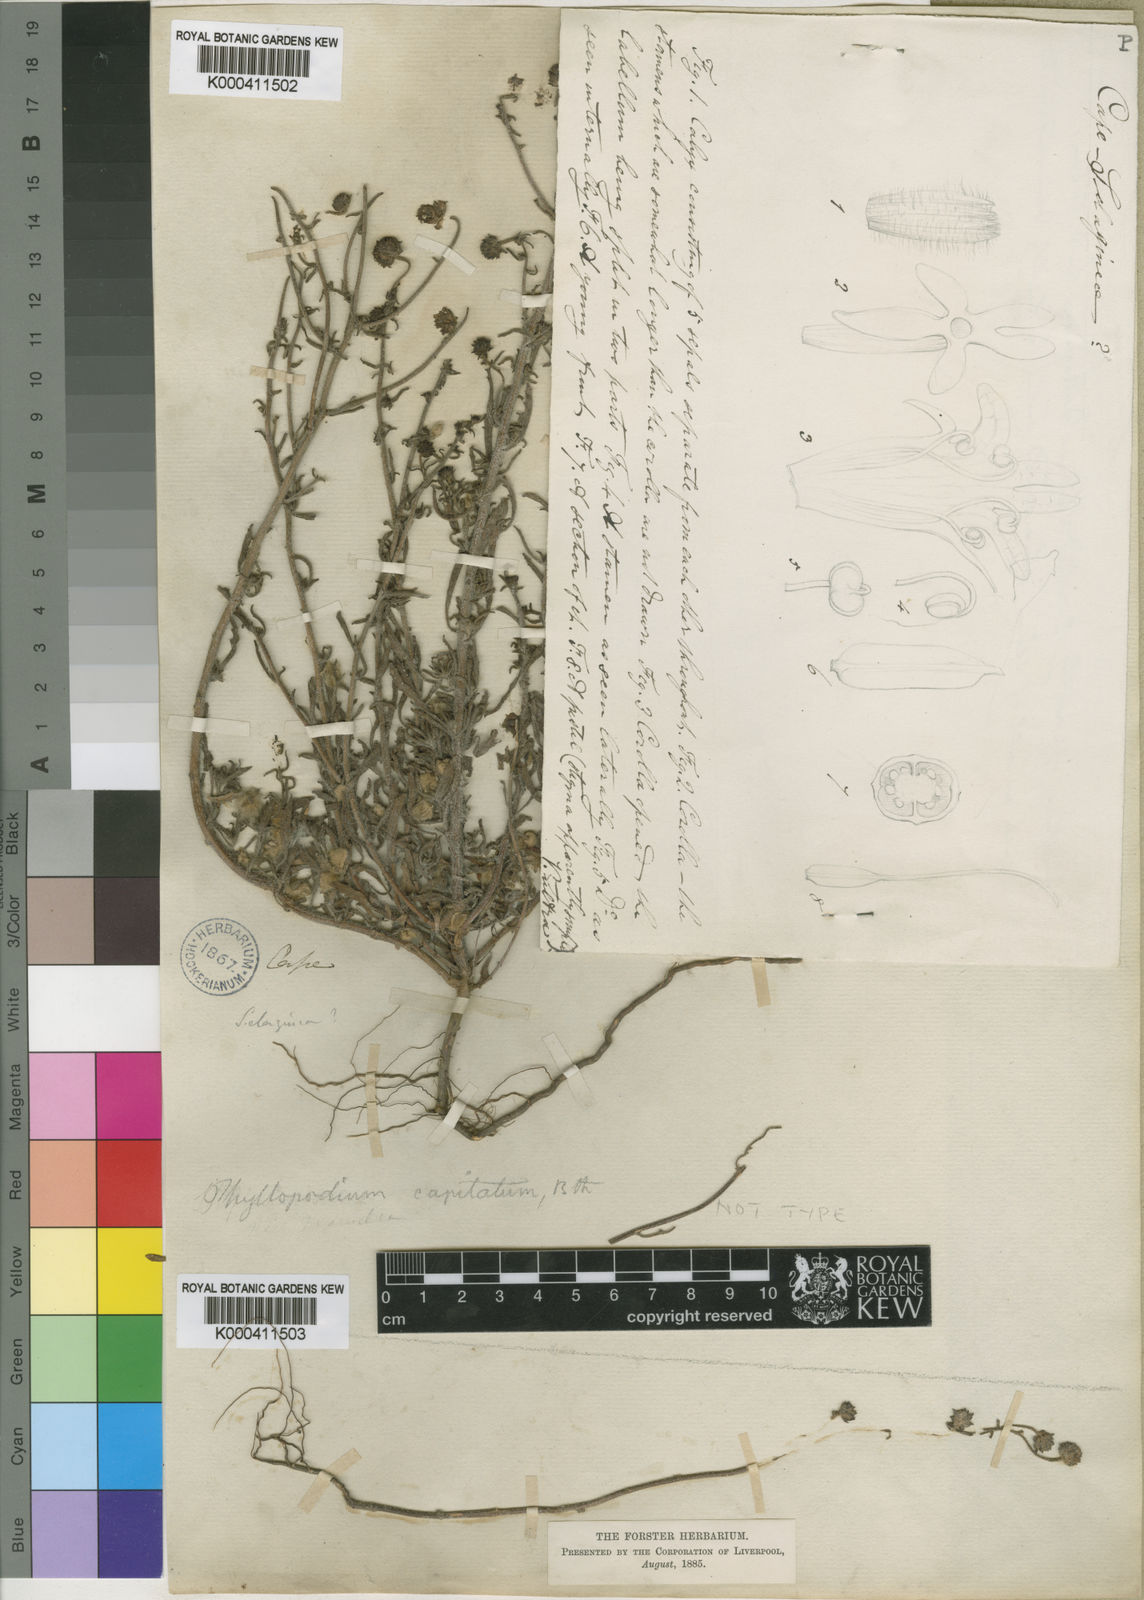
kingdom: Plantae
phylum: Tracheophyta
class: Magnoliopsida
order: Lamiales
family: Scrophulariaceae
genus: Phyllopodium
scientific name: Phyllopodium cephalophorum
